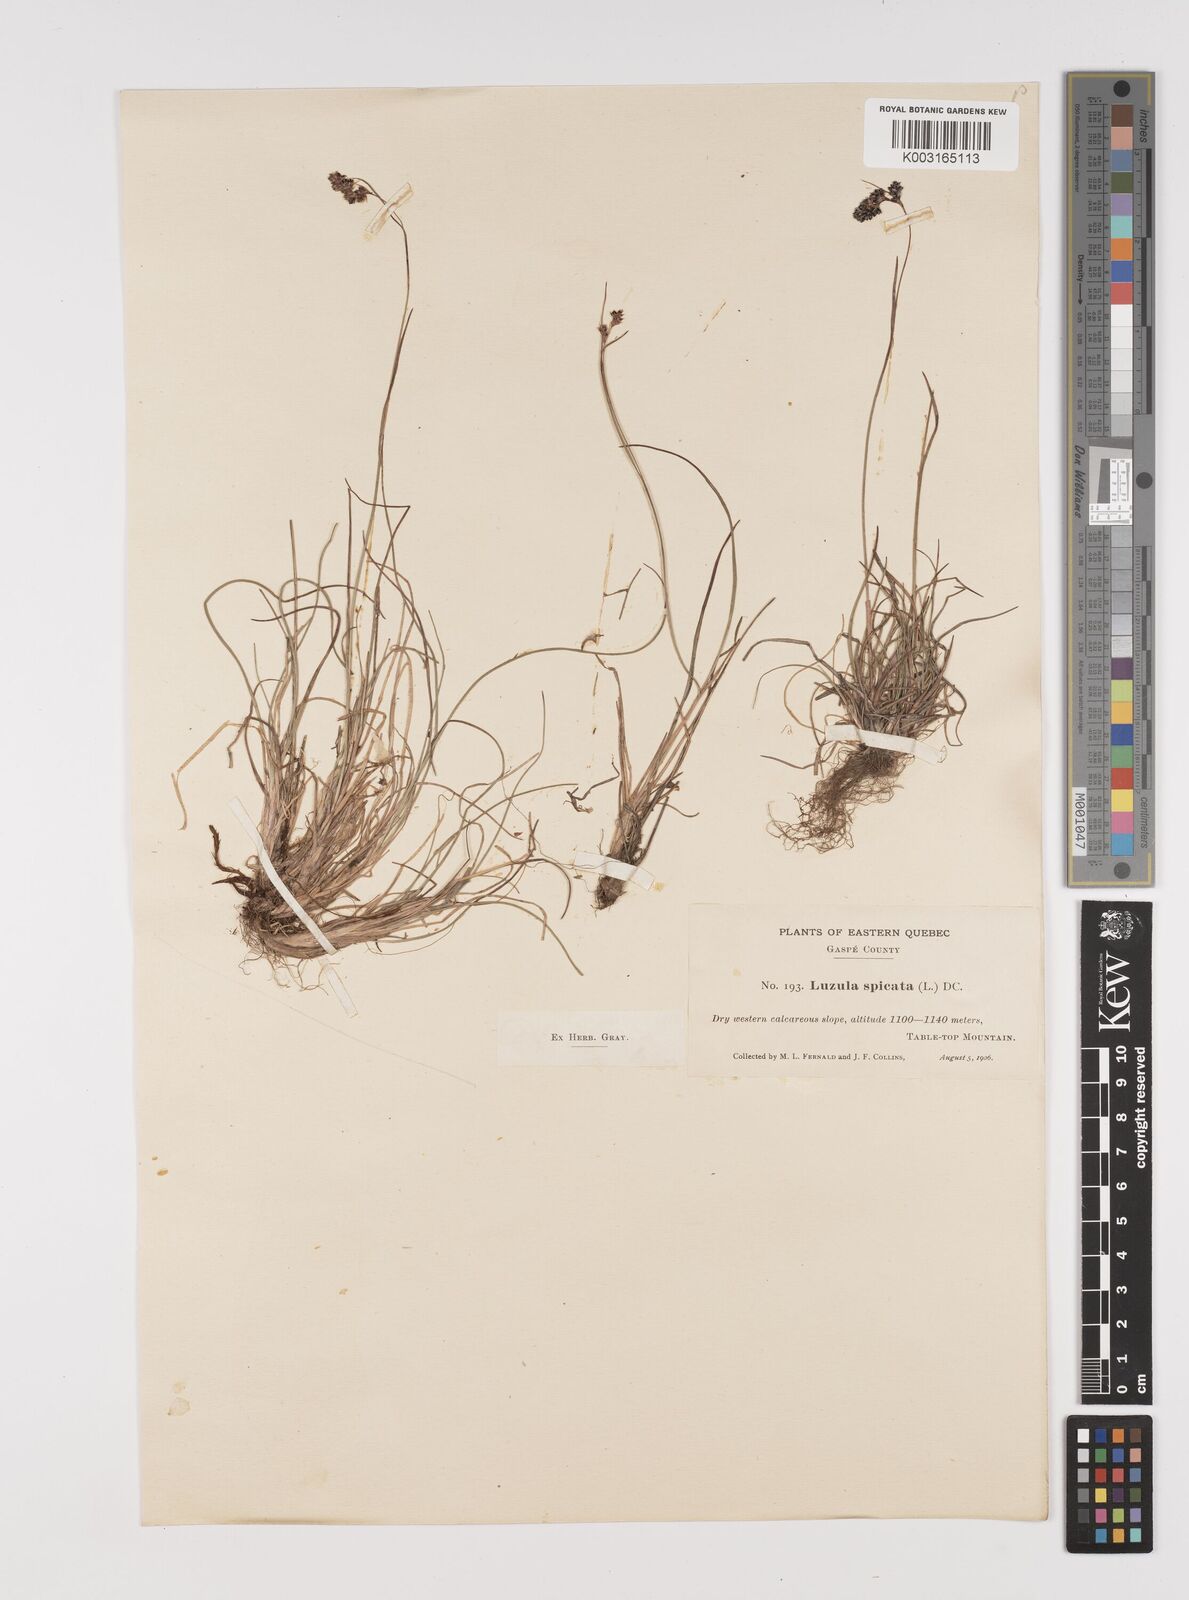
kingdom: Plantae
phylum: Tracheophyta
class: Liliopsida
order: Poales
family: Juncaceae
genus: Luzula
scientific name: Luzula spicata
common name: Spiked wood-rush
